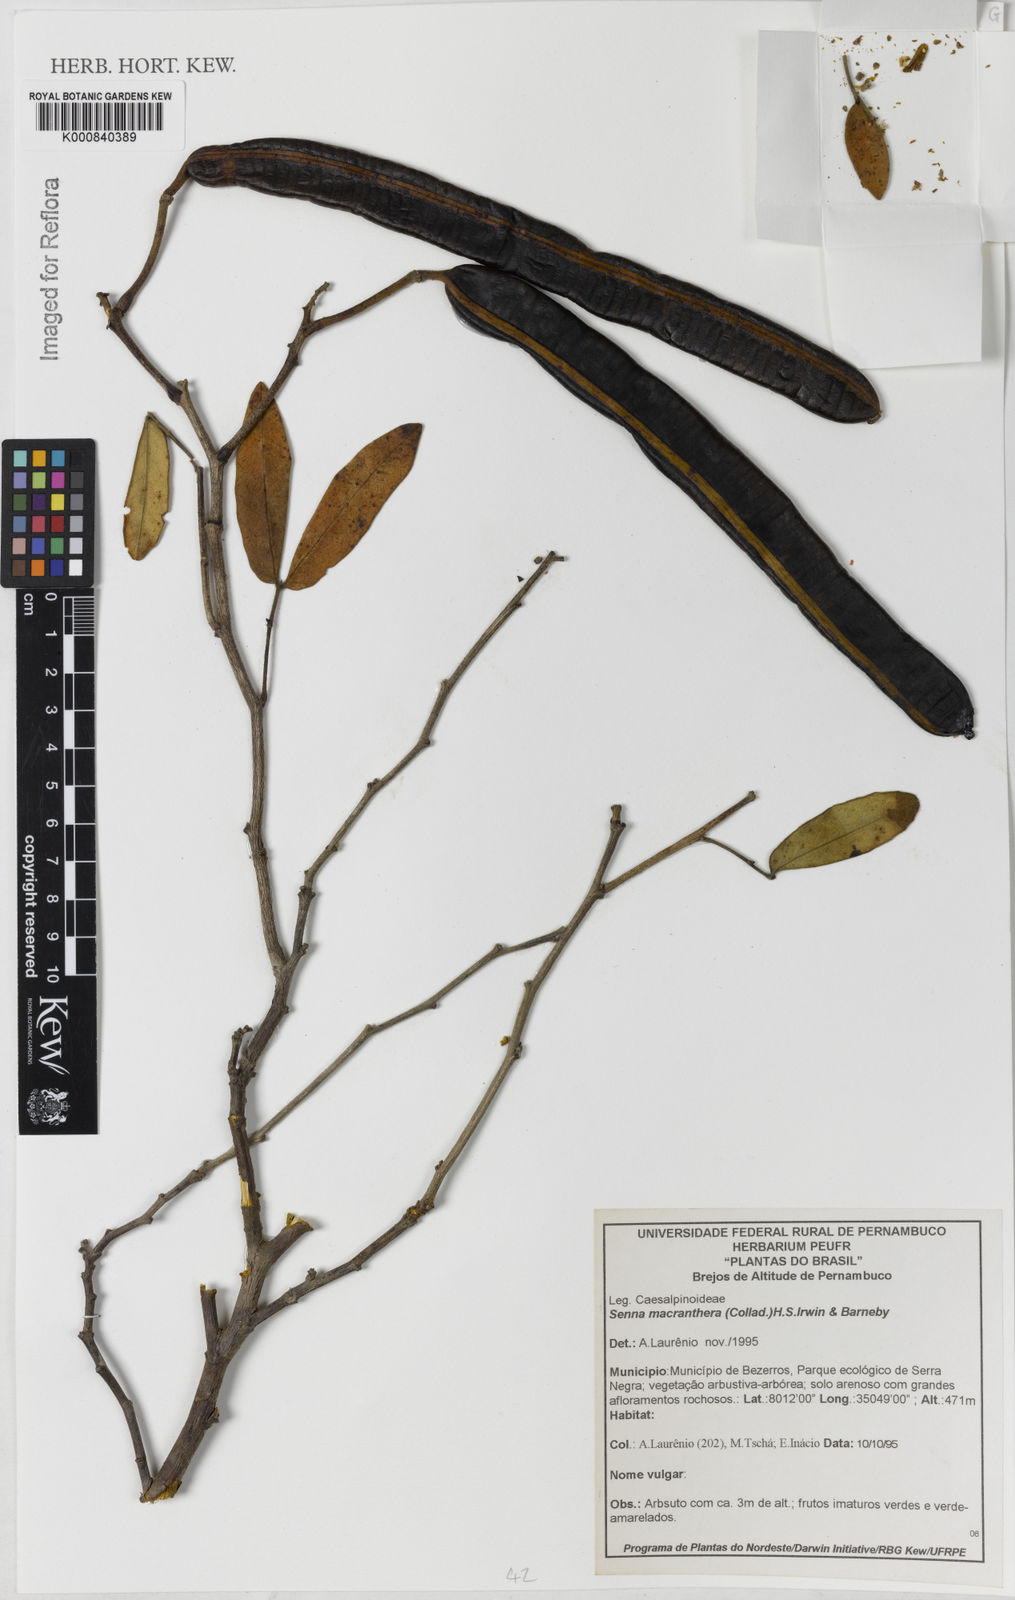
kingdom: Plantae
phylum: Tracheophyta
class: Magnoliopsida
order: Fabales
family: Fabaceae
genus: Senna
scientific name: Senna macranthera
